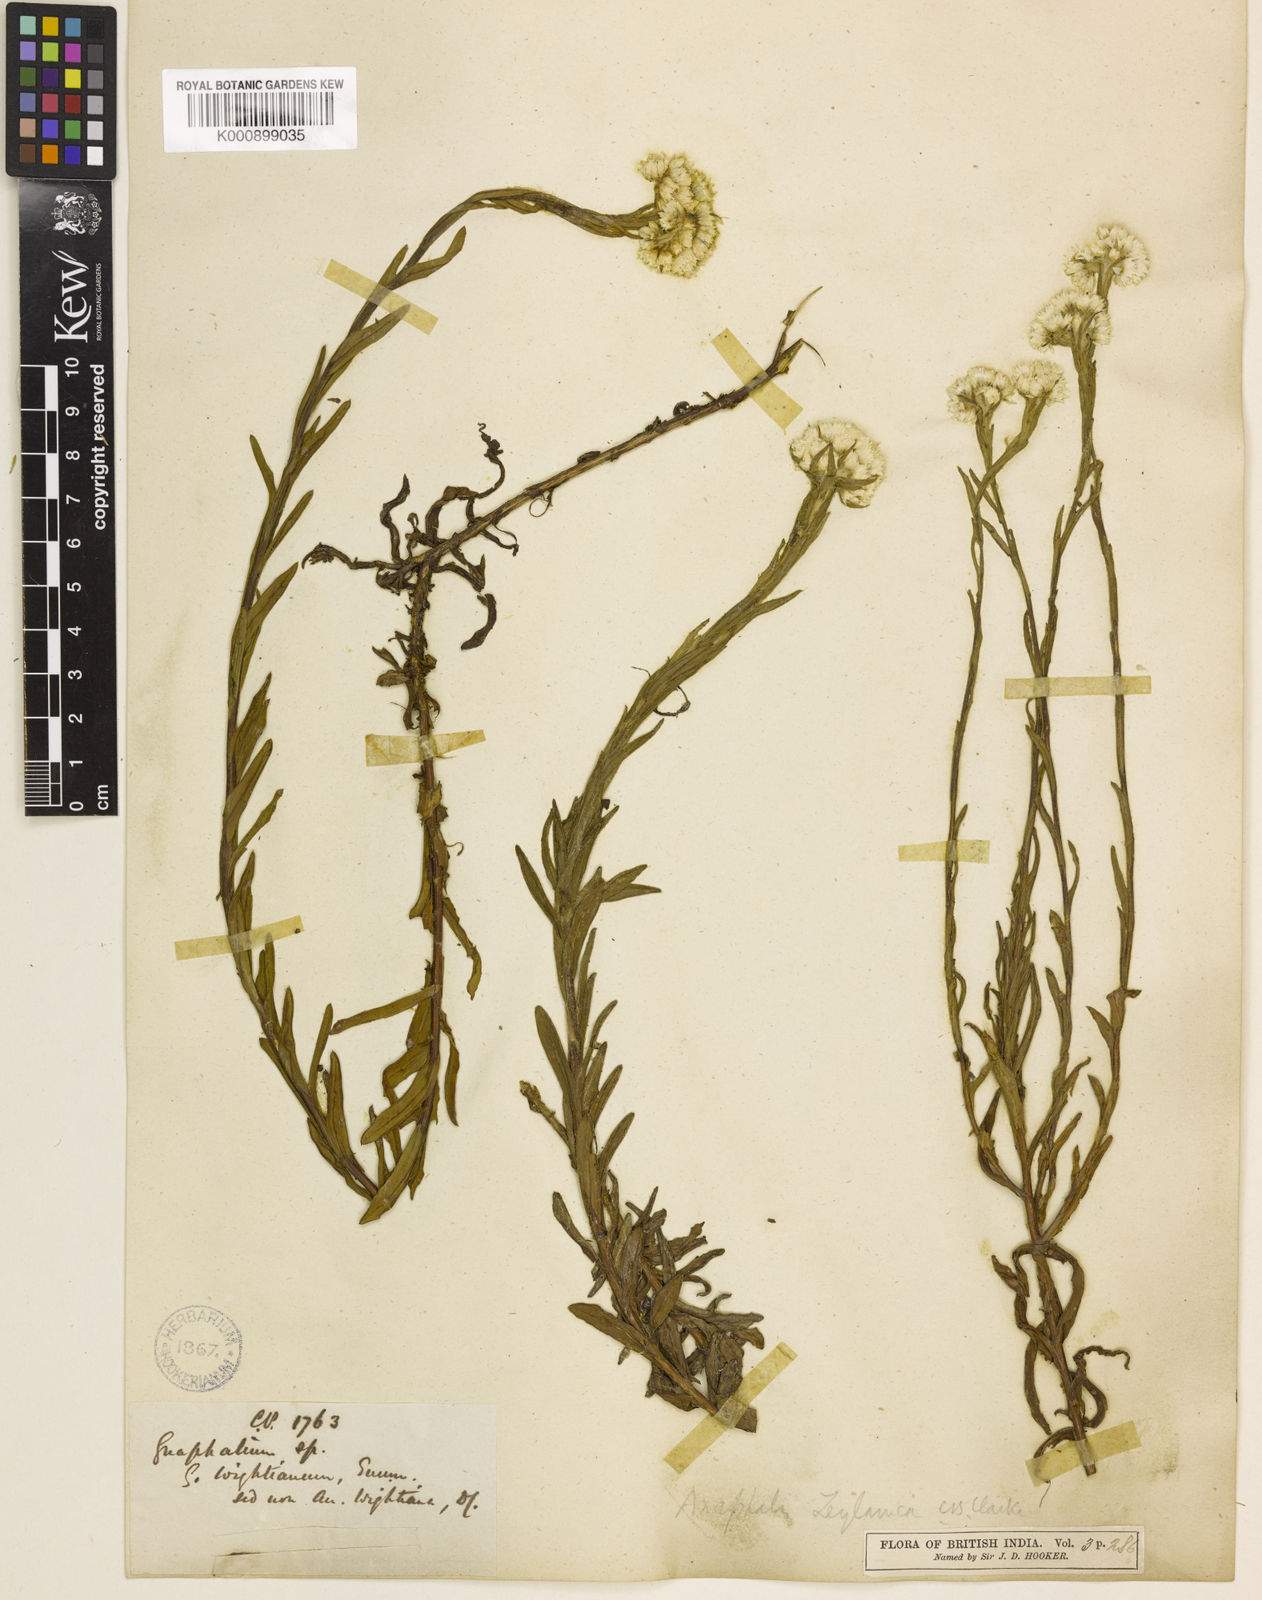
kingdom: Plantae
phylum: Tracheophyta
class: Magnoliopsida
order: Asterales
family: Asteraceae
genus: Anaphalis
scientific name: Anaphalis zeylanica
